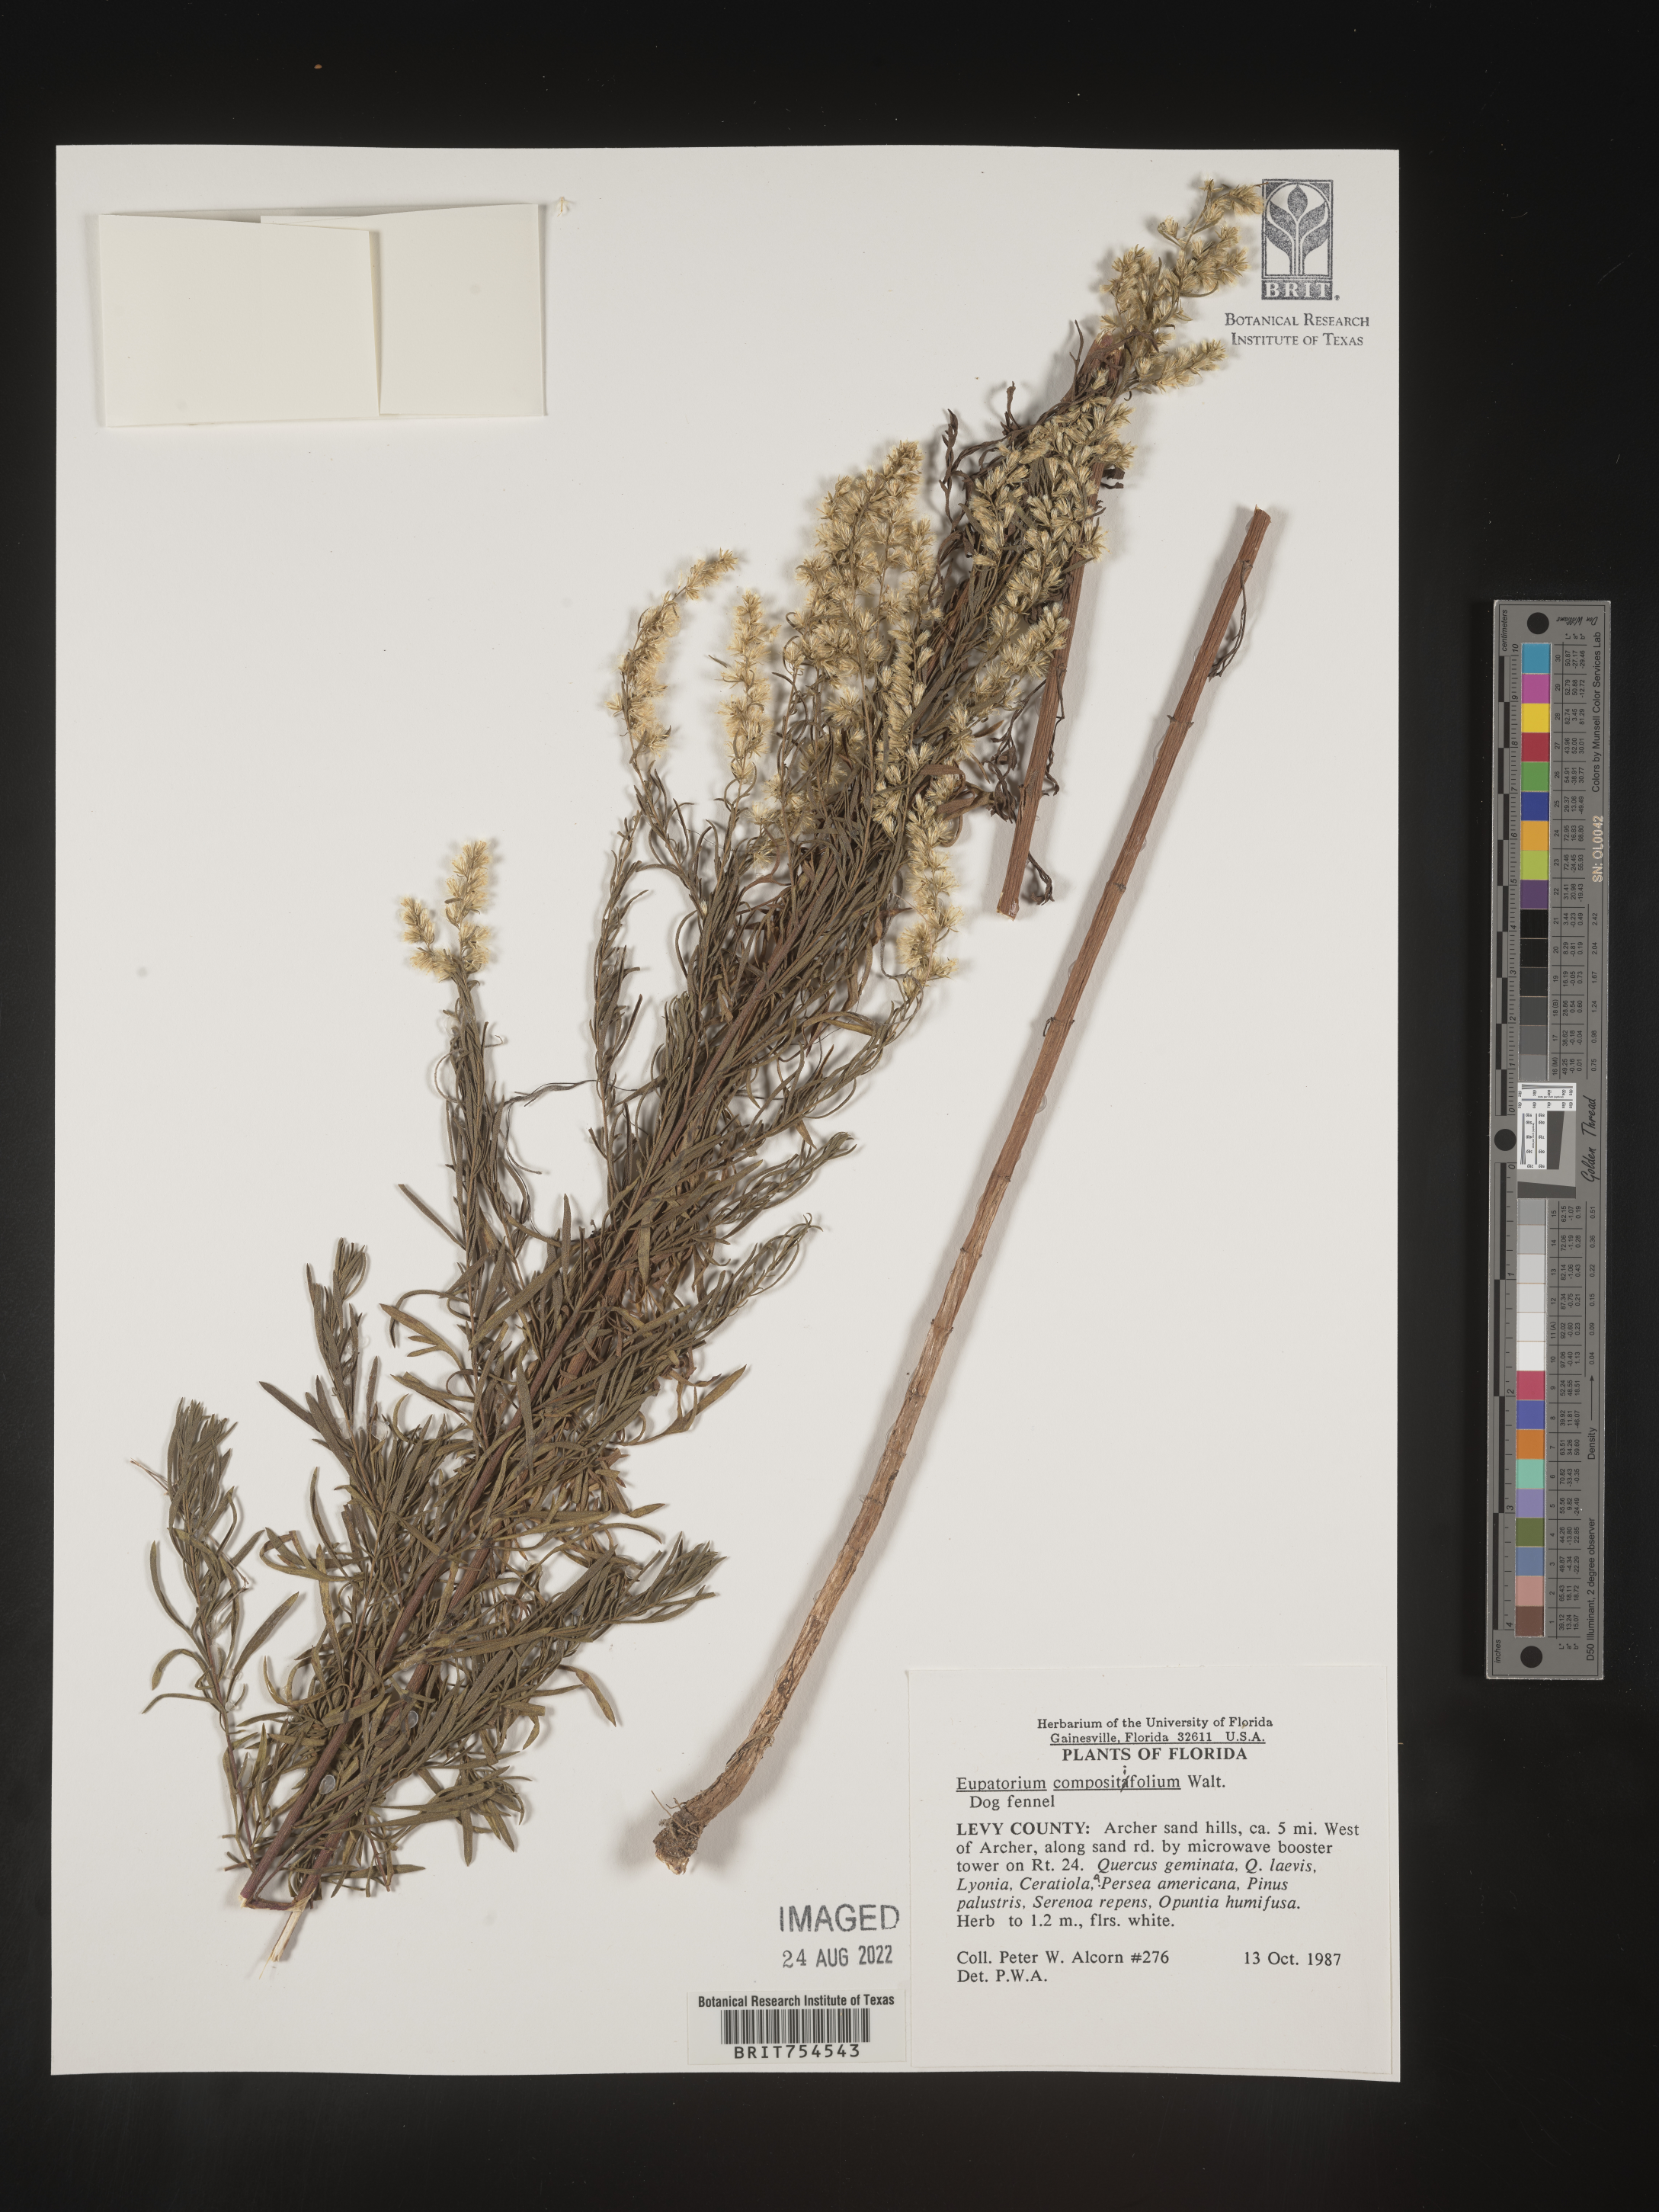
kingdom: Plantae
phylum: Tracheophyta
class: Magnoliopsida
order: Asterales
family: Asteraceae
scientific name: Asteraceae
